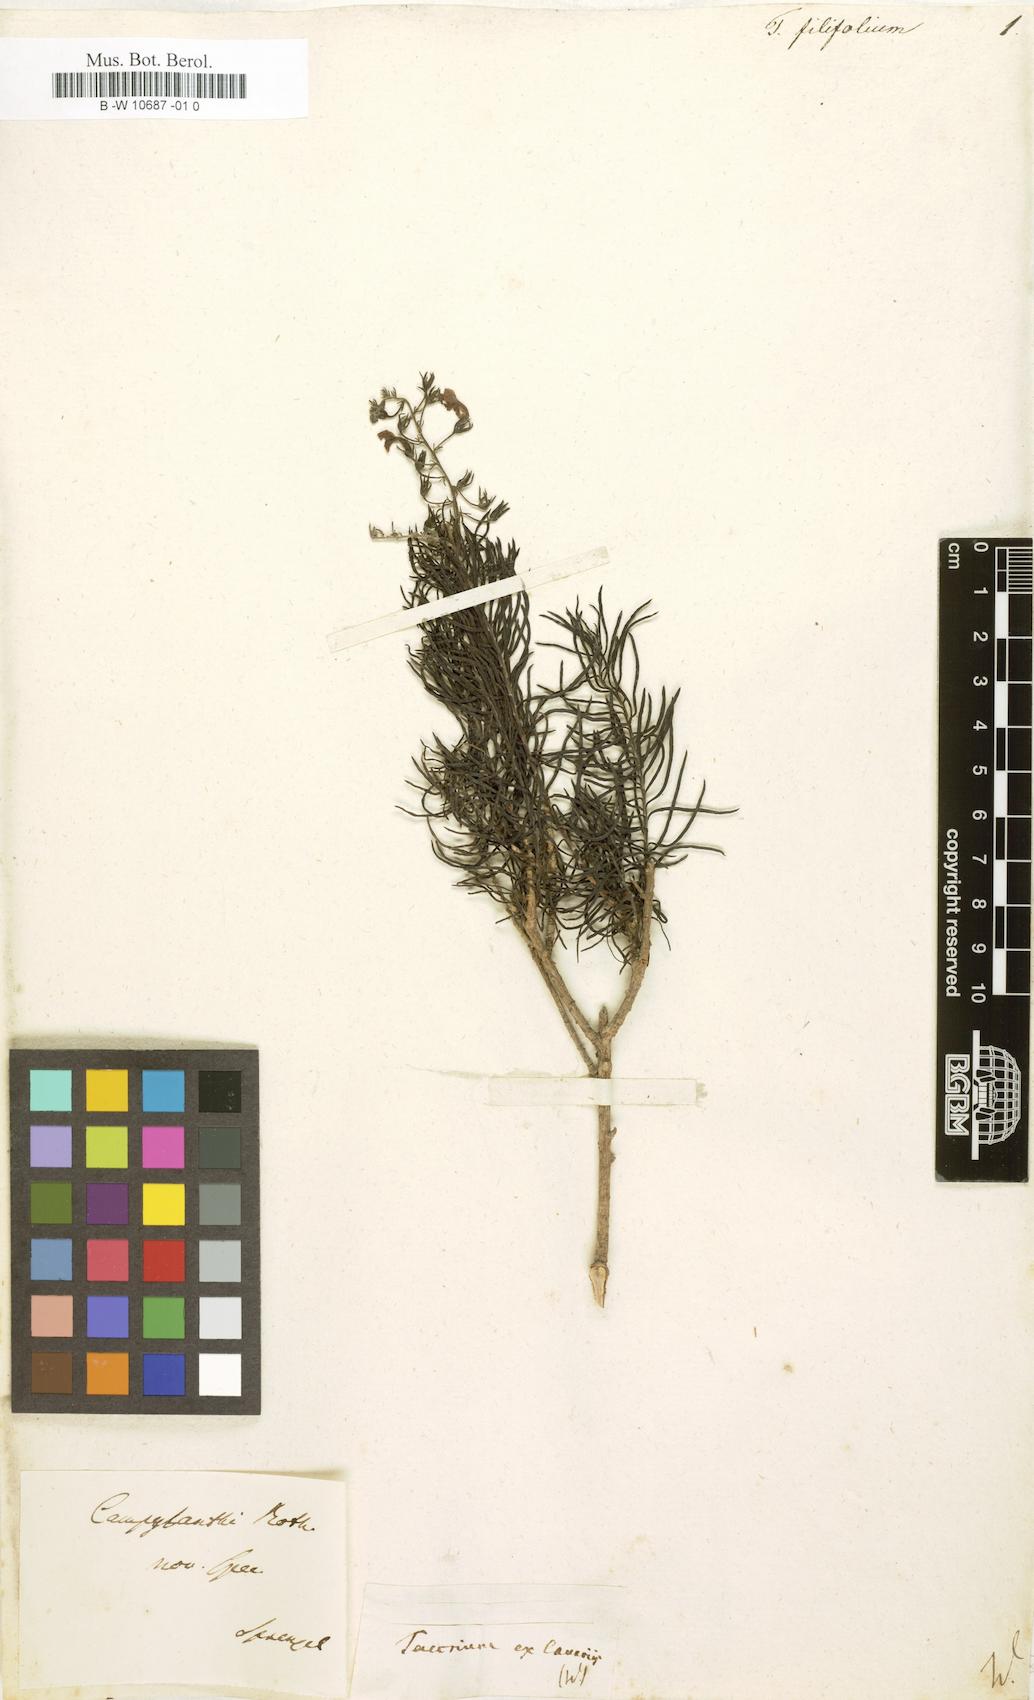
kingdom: Plantae
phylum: Tracheophyta
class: Magnoliopsida
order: Lamiales
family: Plantaginaceae
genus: Campylanthus
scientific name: Campylanthus salsoloides
